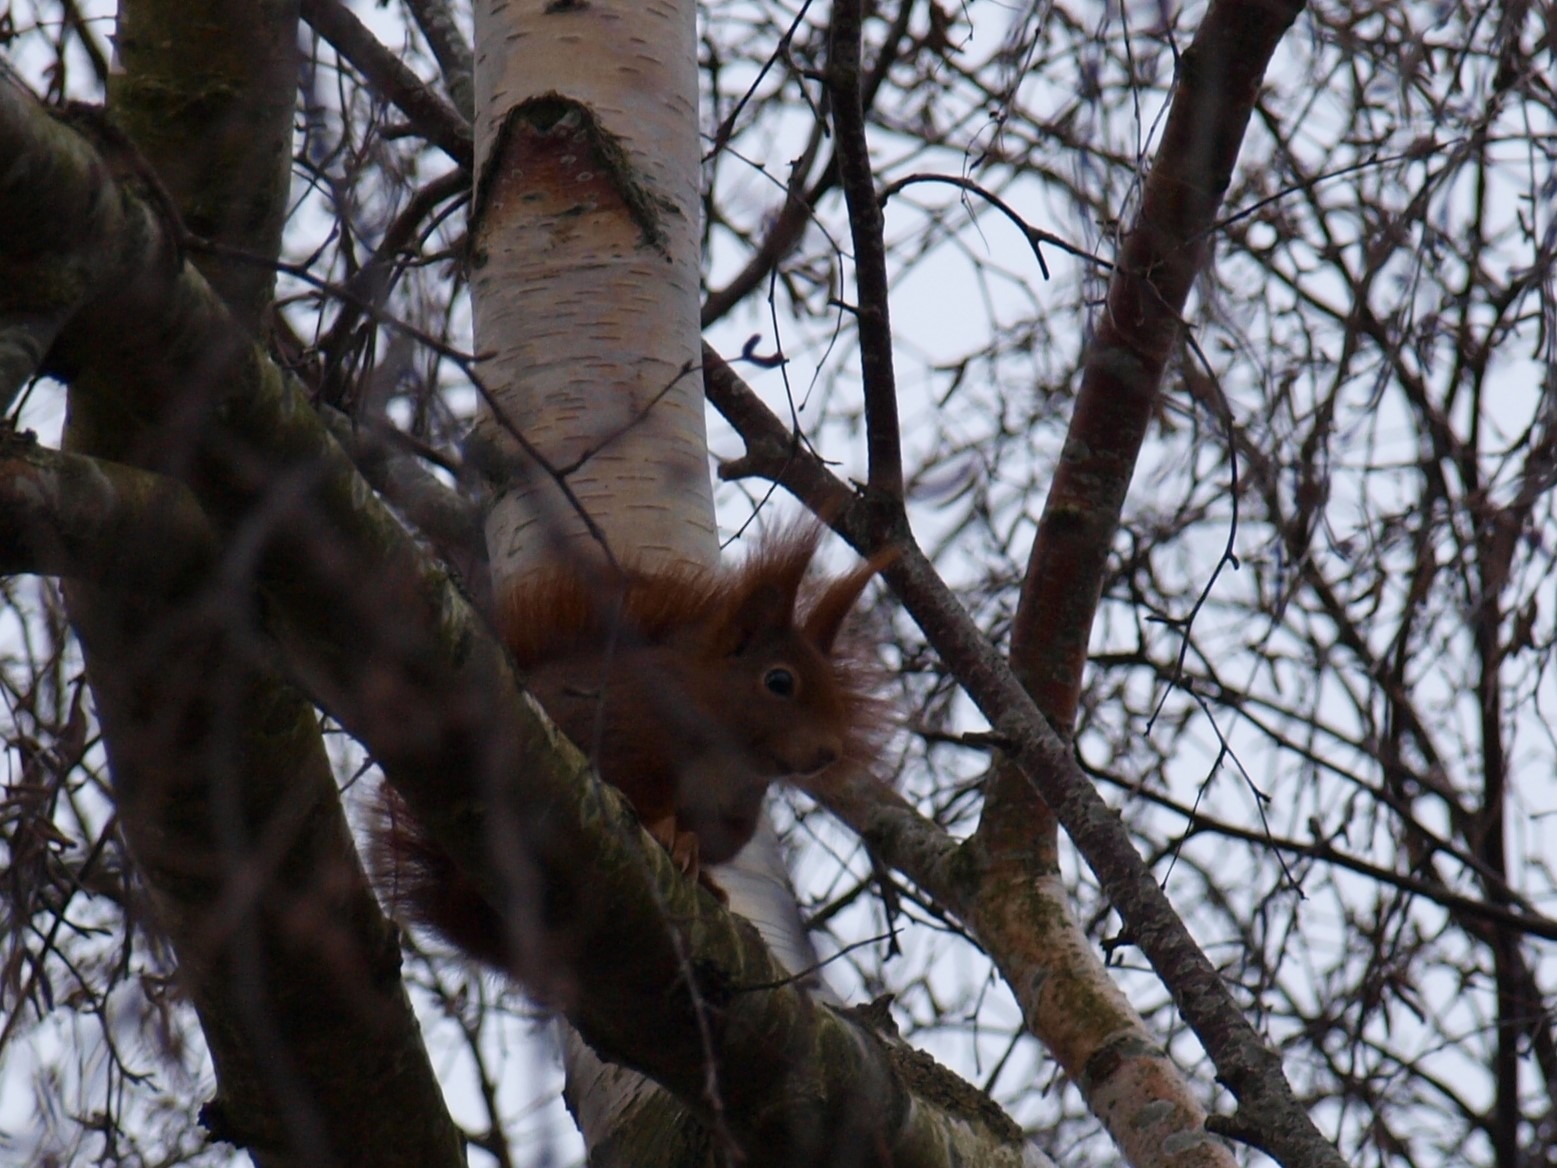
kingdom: Animalia
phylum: Chordata
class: Mammalia
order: Rodentia
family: Sciuridae
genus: Sciurus
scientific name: Sciurus vulgaris
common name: Egern
